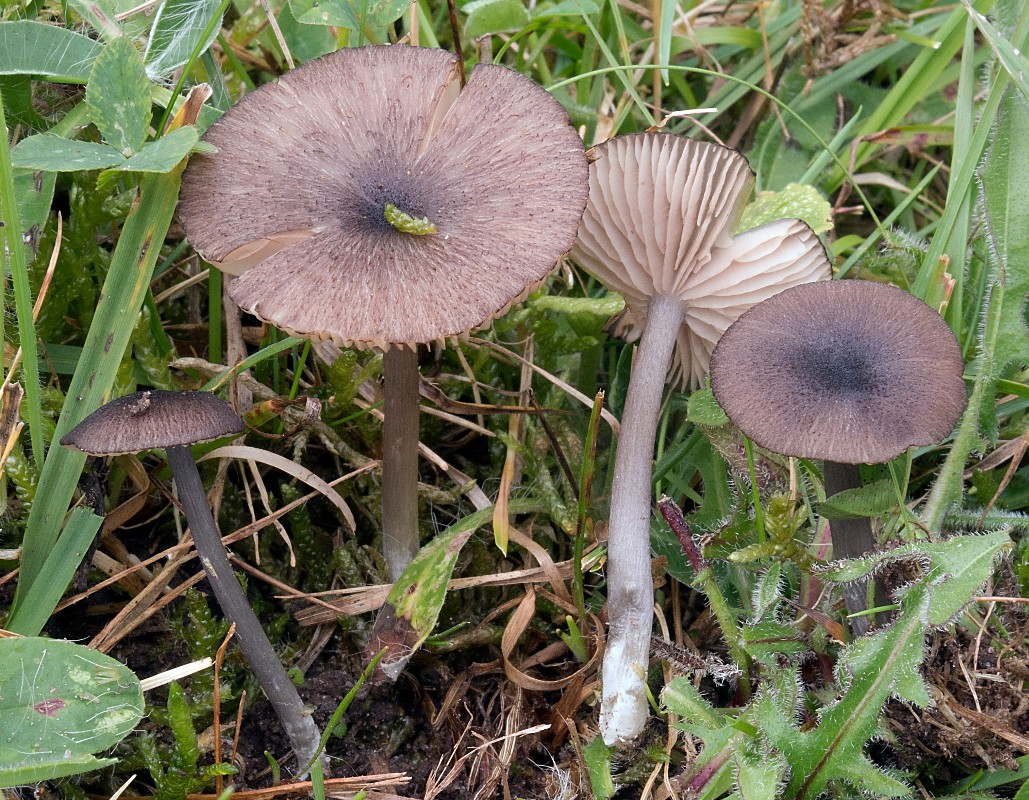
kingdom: Fungi
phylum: Basidiomycota
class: Agaricomycetes
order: Agaricales
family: Entolomataceae
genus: Entoloma
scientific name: Entoloma porphyrogriseum
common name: porfyrgrå rødblad
